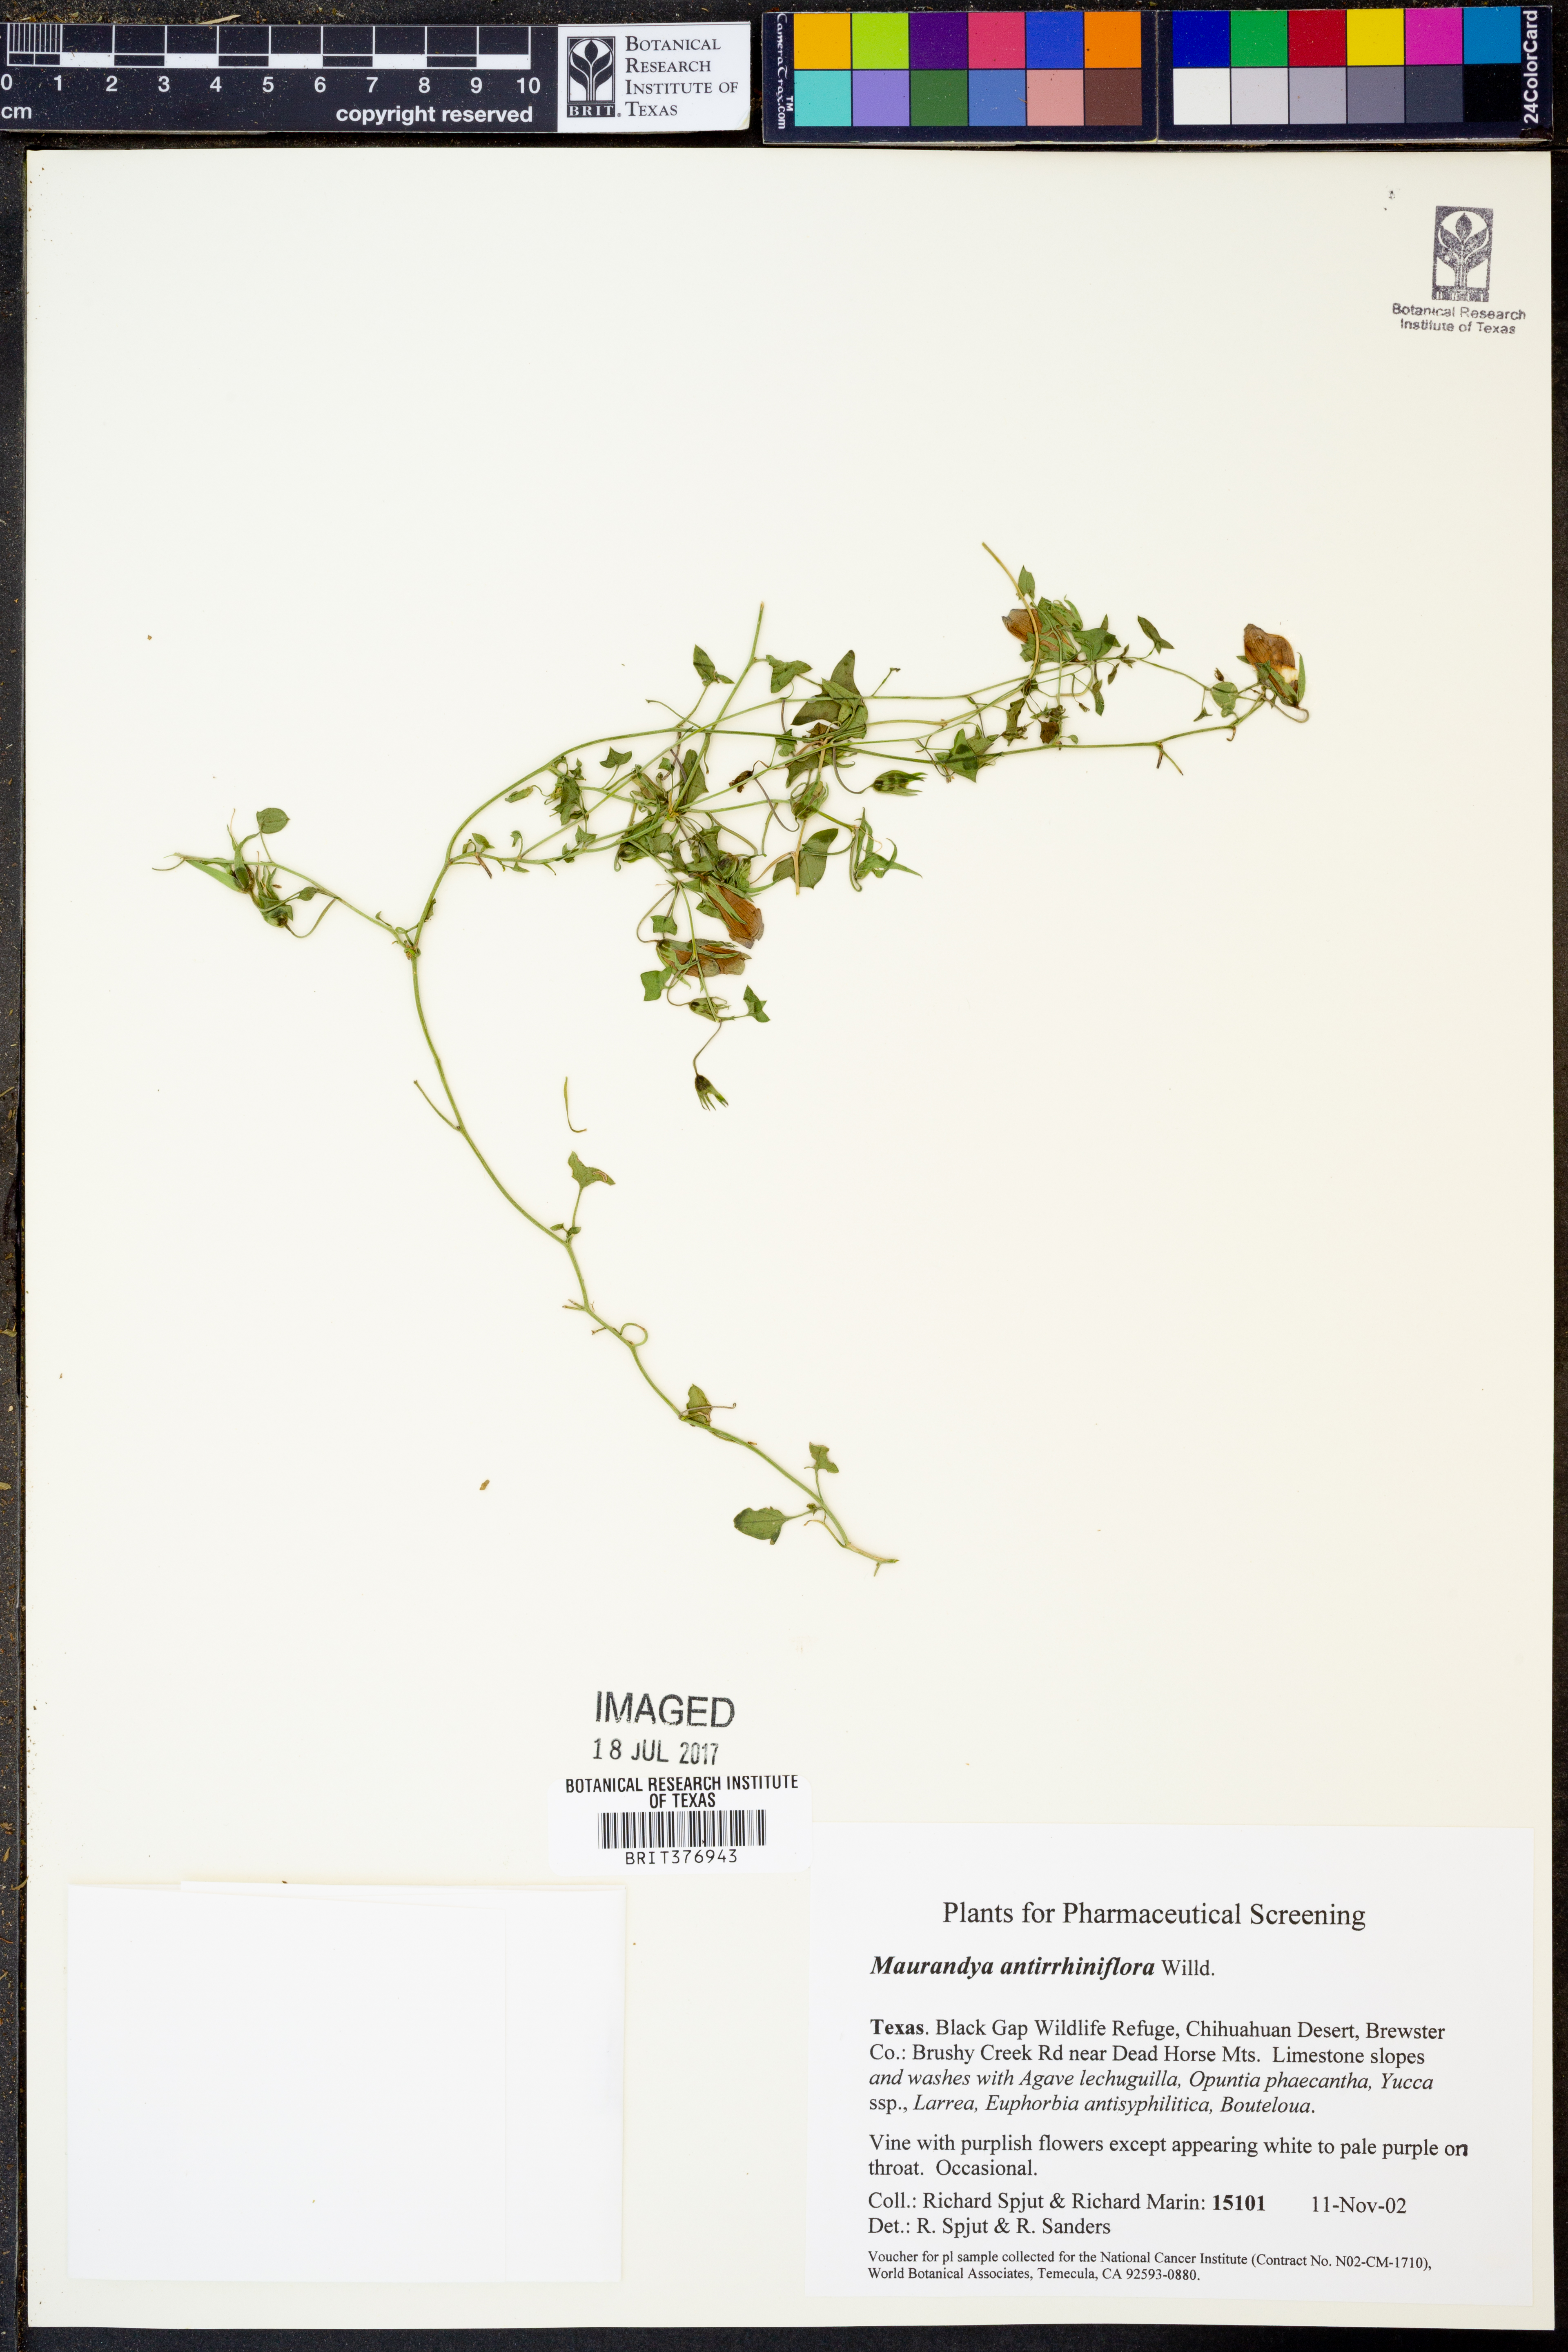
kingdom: Plantae
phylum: Tracheophyta
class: Magnoliopsida
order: Lamiales
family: Plantaginaceae
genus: Maurandella
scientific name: Maurandella antirrhiniflora
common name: Violet twining-snapdragon
